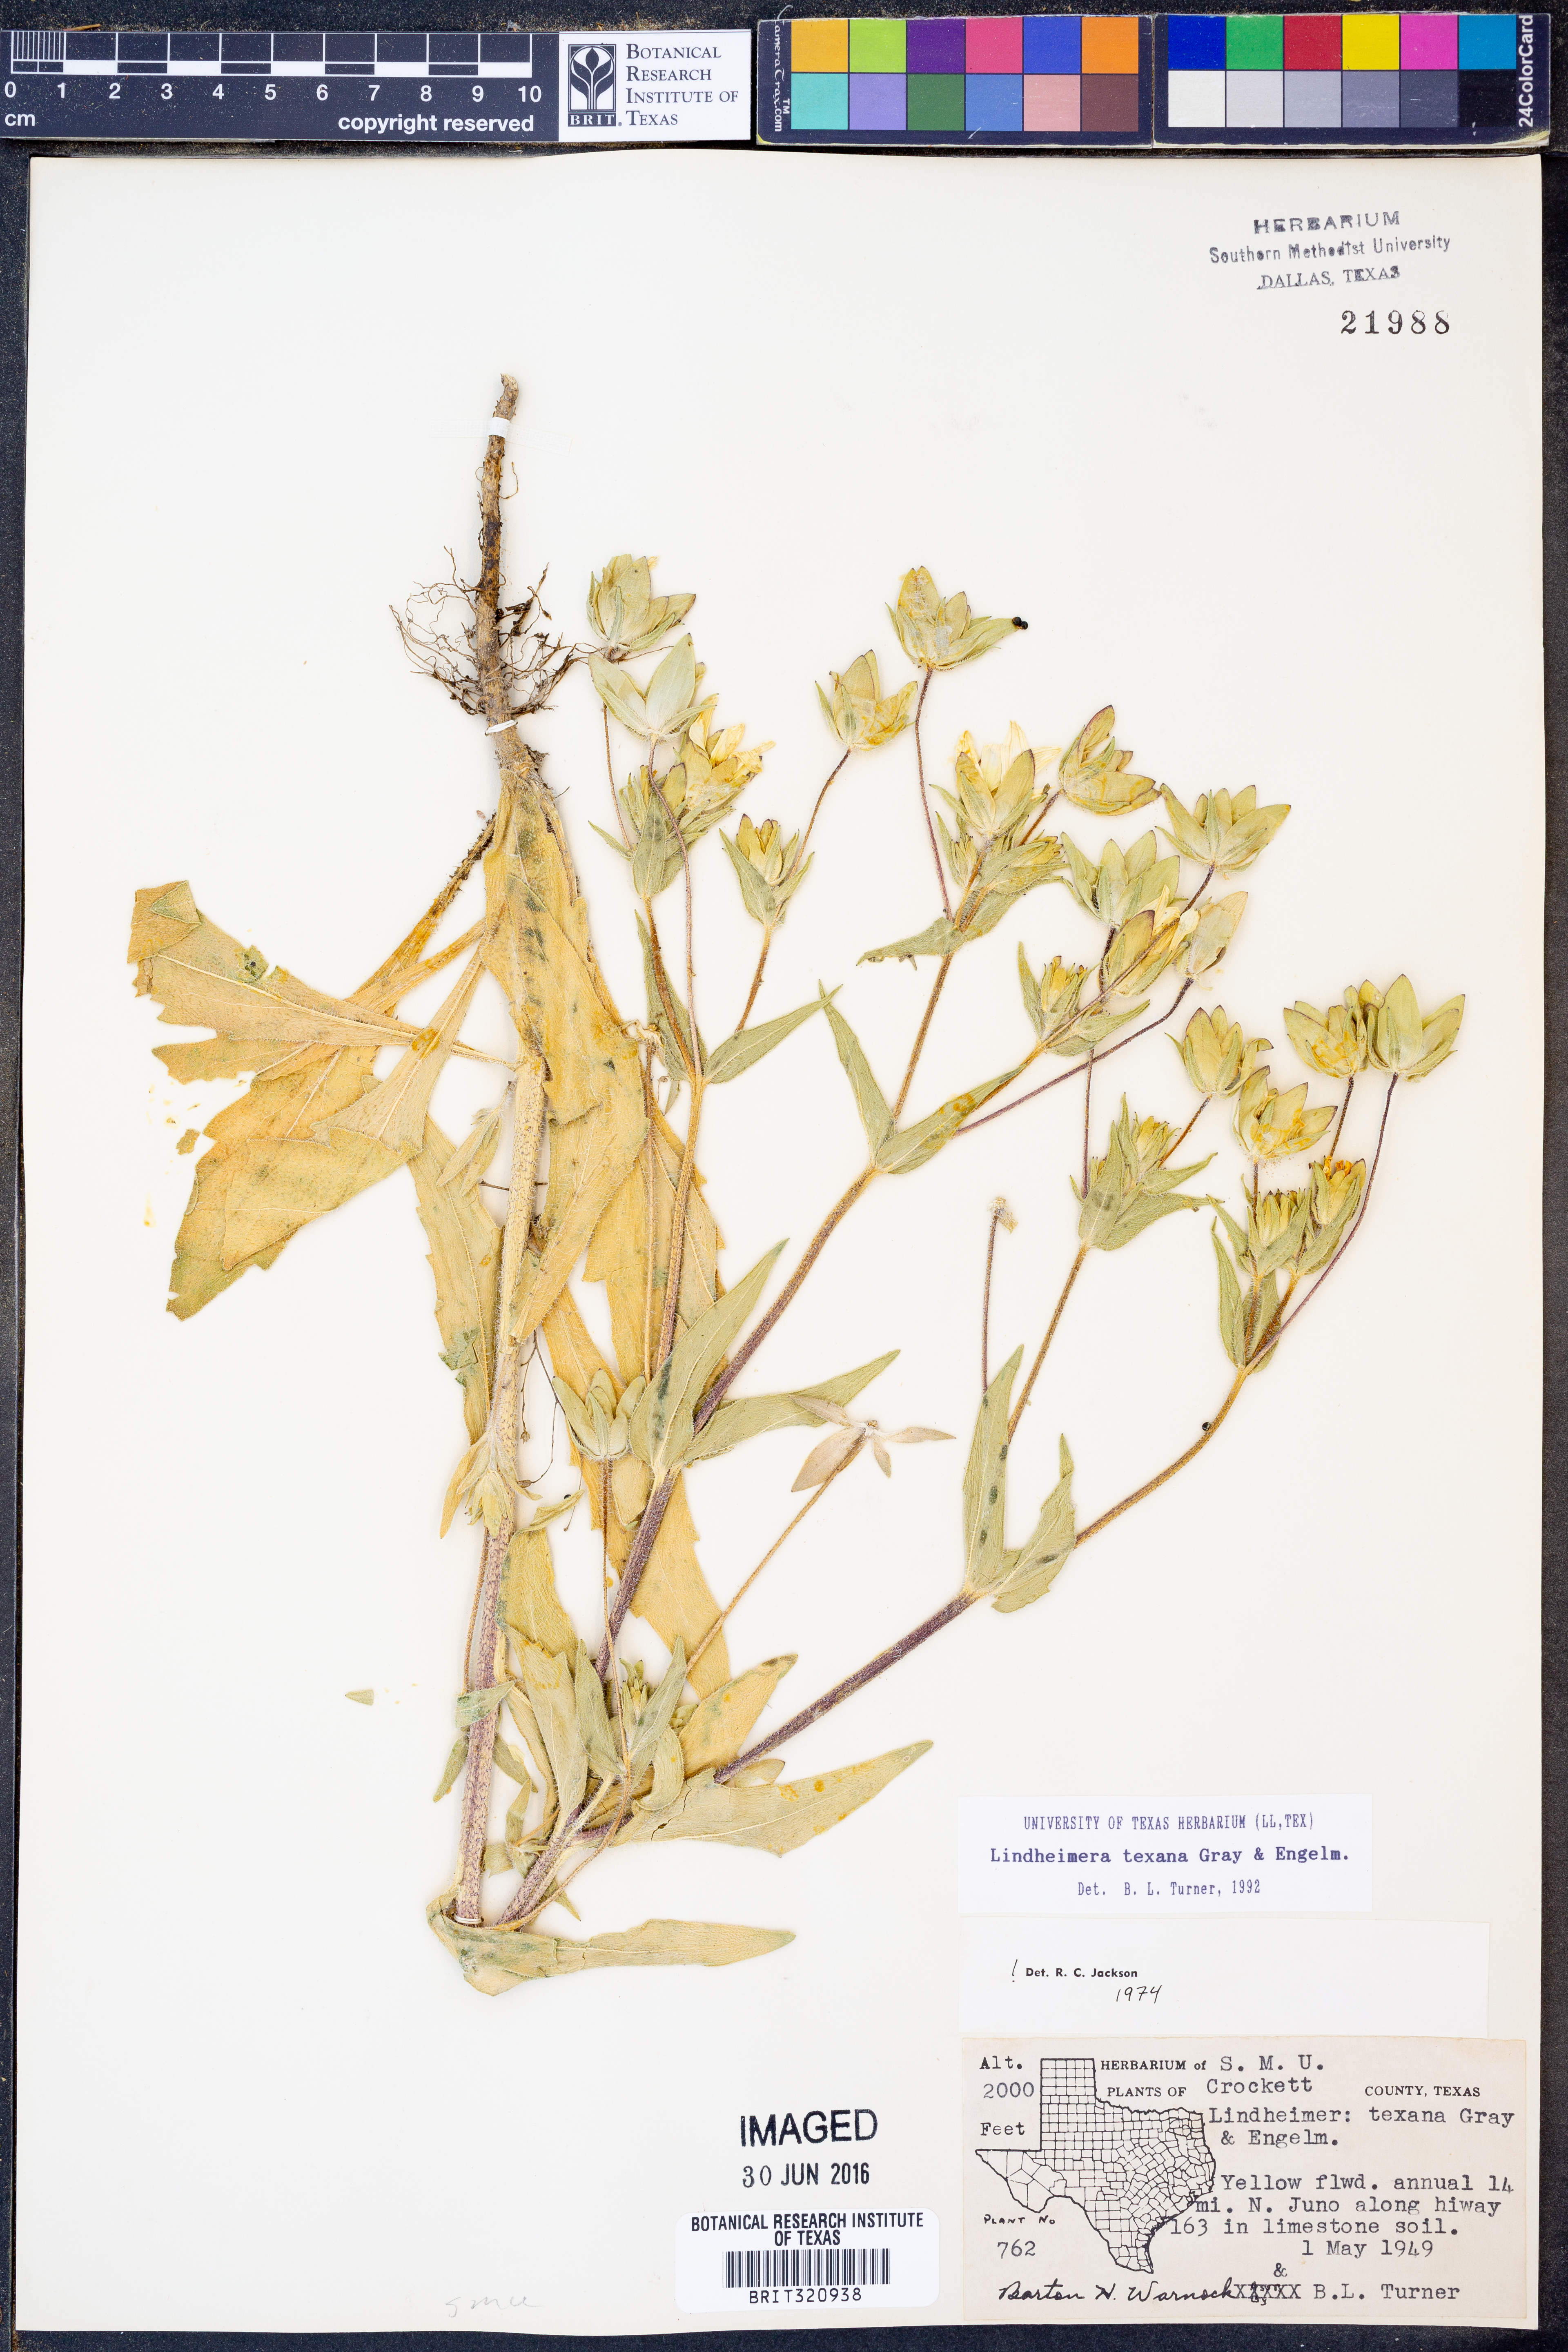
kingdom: Plantae
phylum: Tracheophyta
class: Magnoliopsida
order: Asterales
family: Asteraceae
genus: Lindheimera
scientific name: Lindheimera texana
